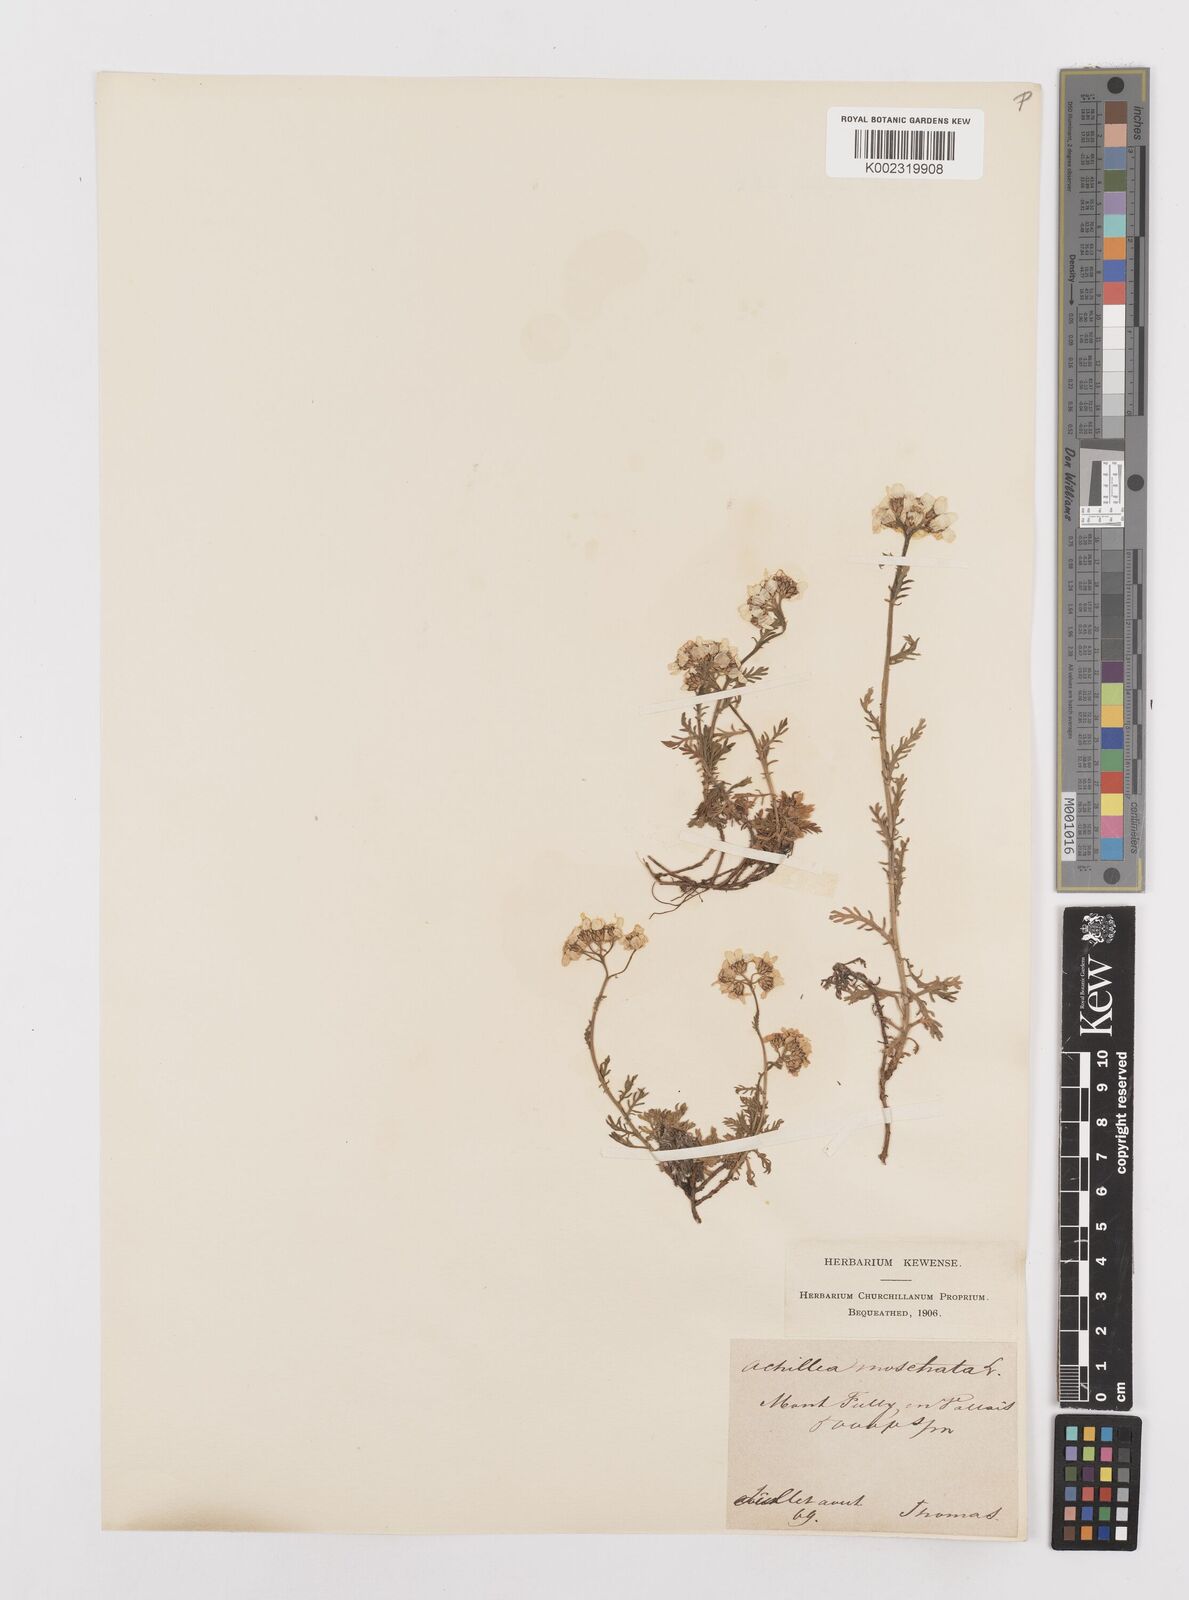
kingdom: Plantae
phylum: Tracheophyta
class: Magnoliopsida
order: Asterales
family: Asteraceae
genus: Achillea
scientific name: Achillea erba-rotta
